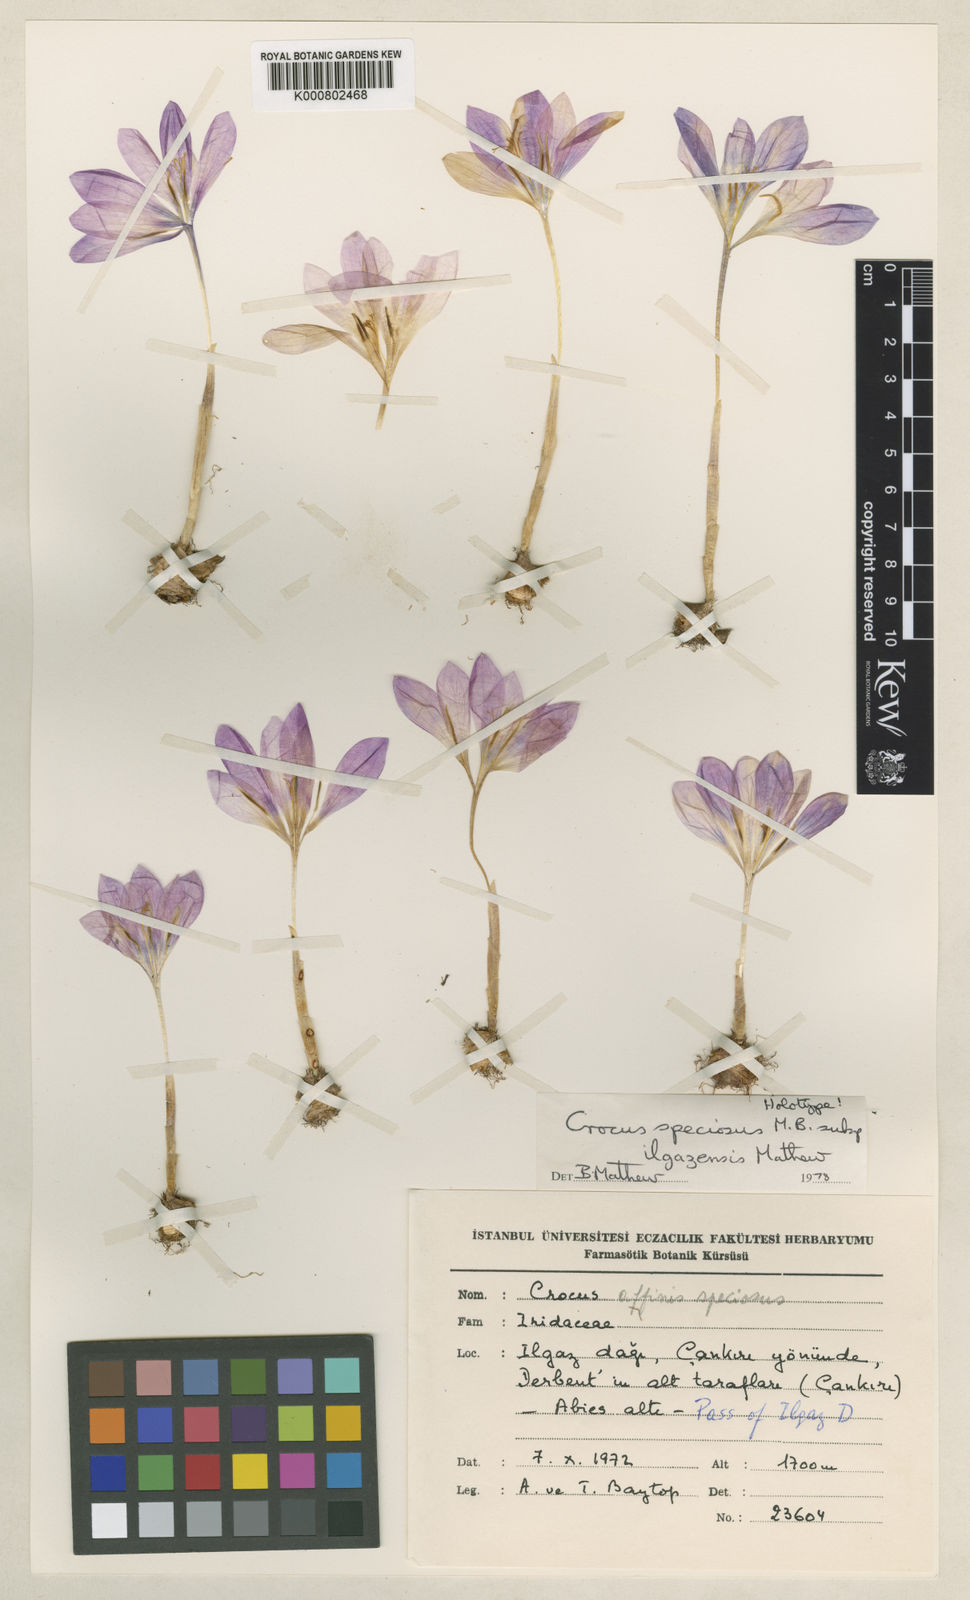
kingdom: Plantae
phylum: Tracheophyta
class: Liliopsida
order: Asparagales
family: Iridaceae
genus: Crocus
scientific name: Crocus ilgazensis
